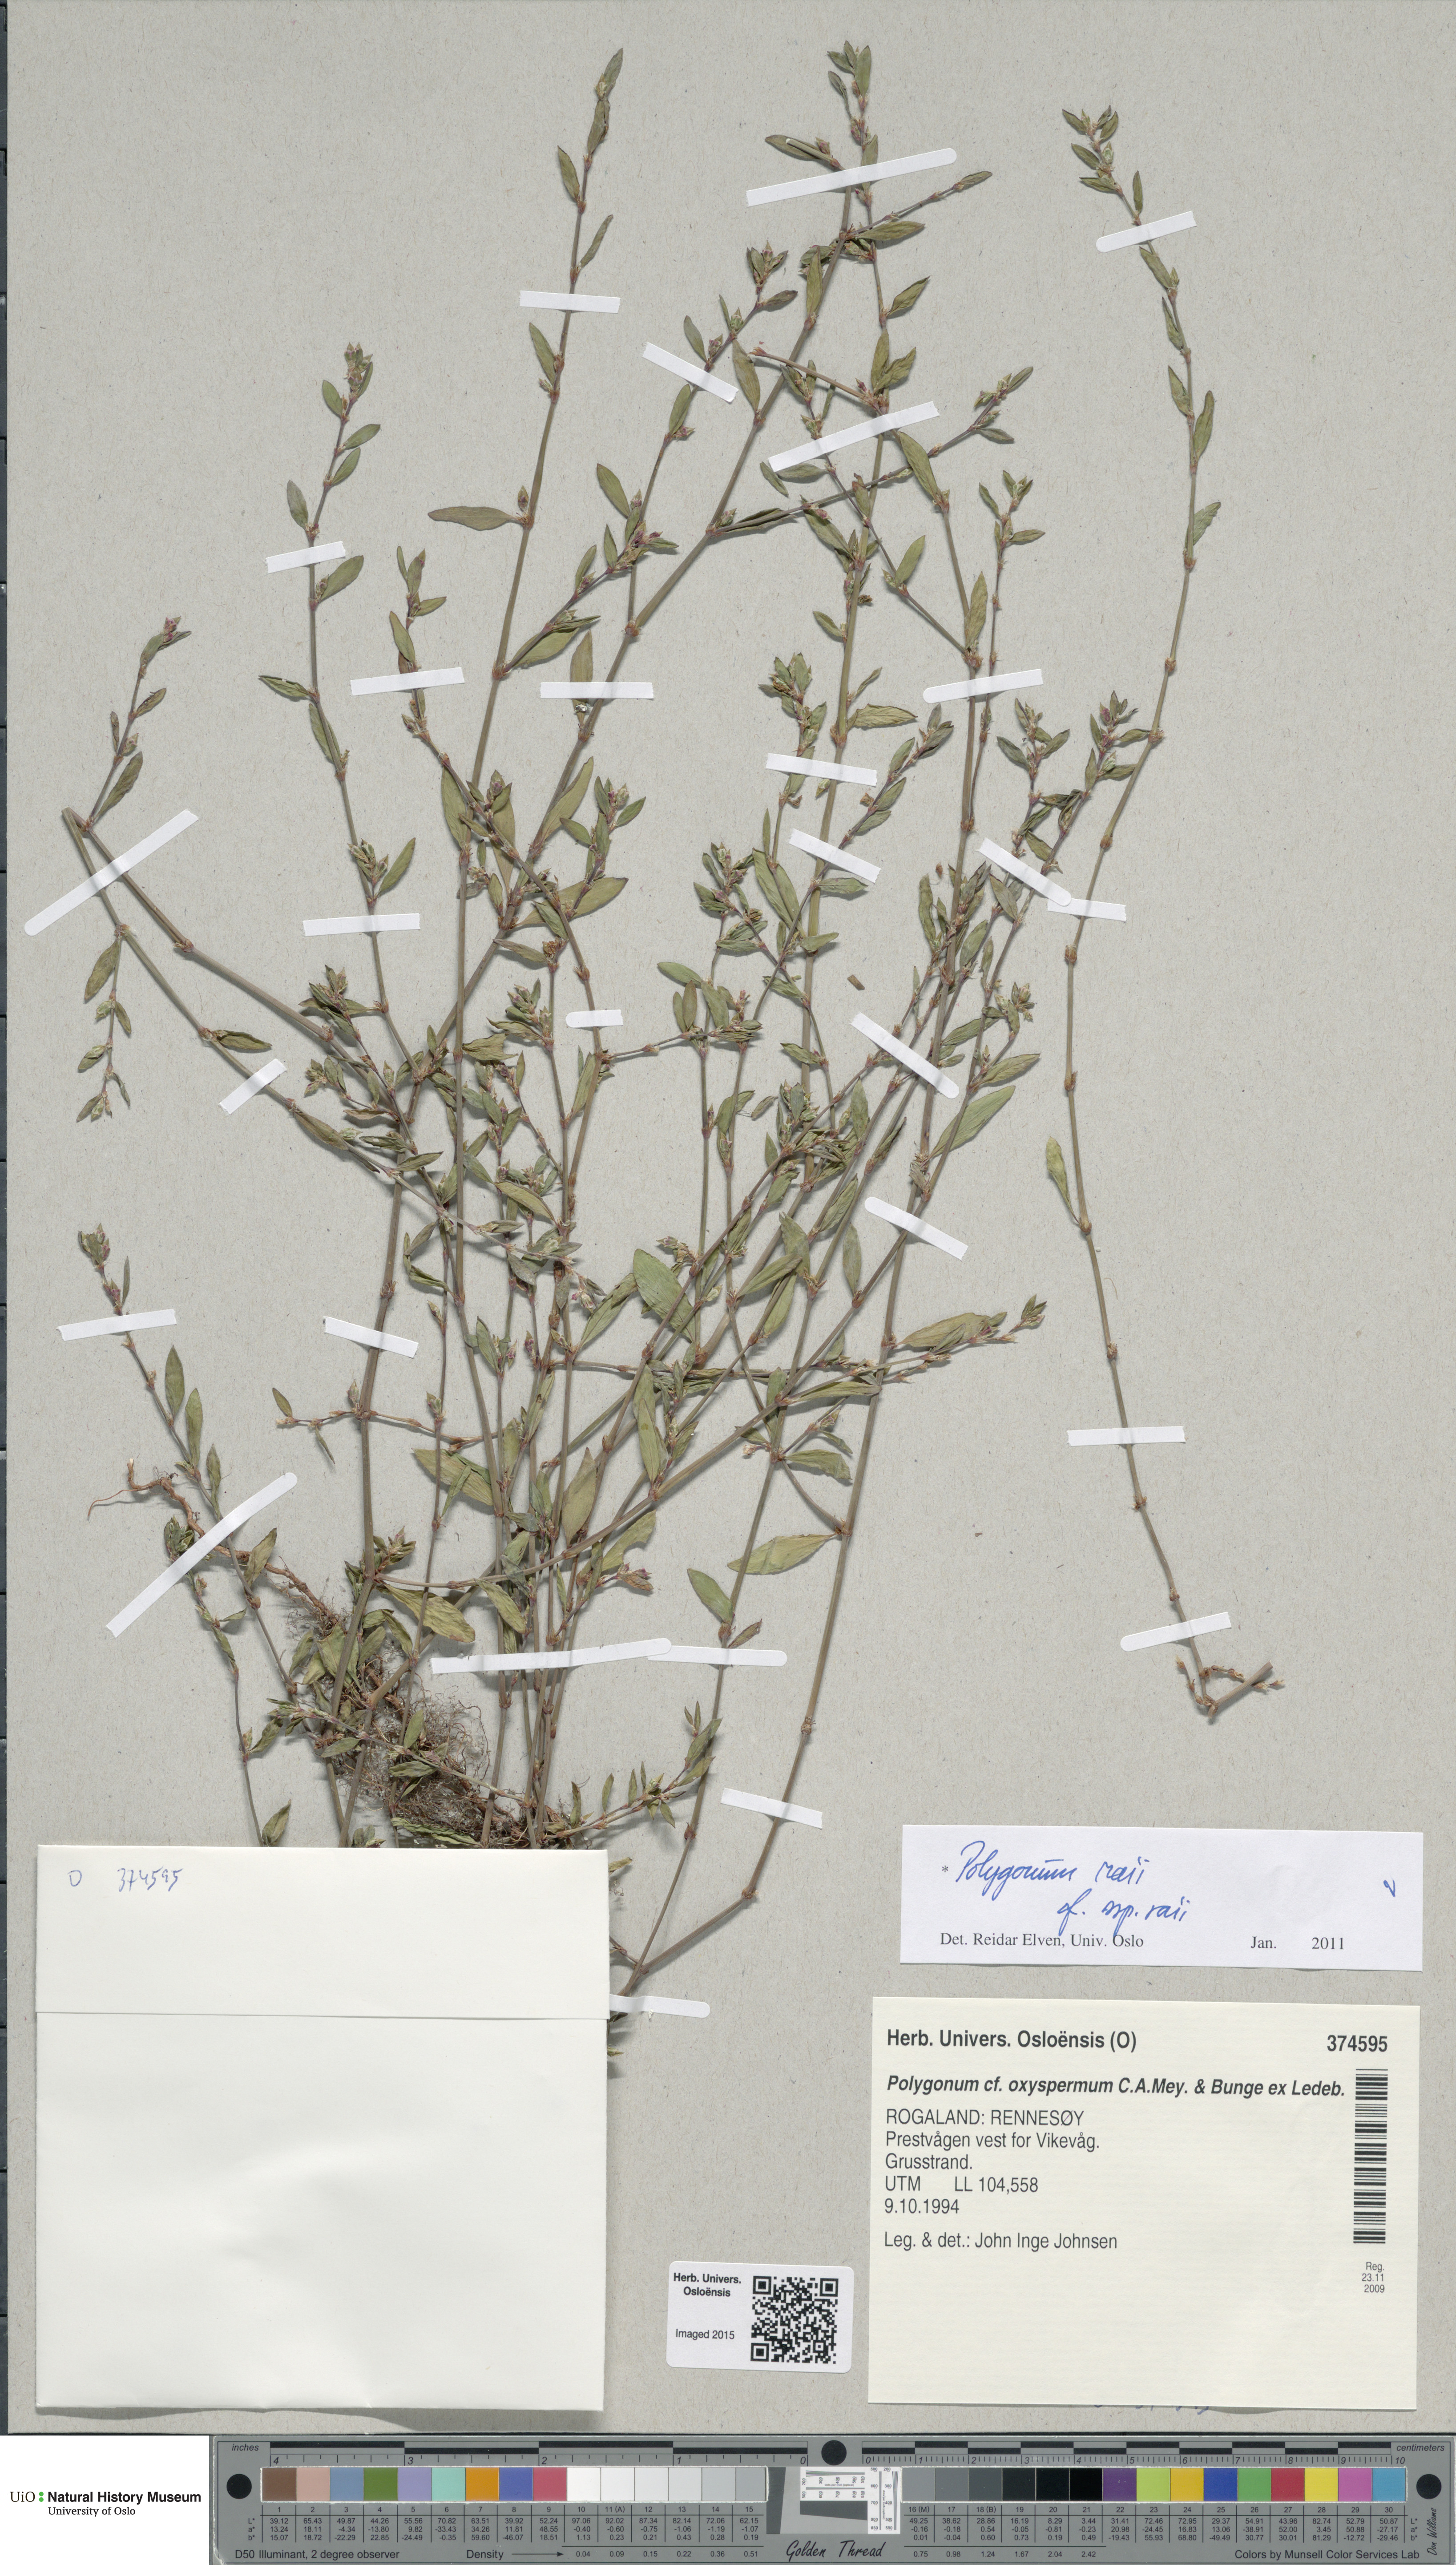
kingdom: Plantae
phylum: Tracheophyta
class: Magnoliopsida
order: Caryophyllales
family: Polygonaceae
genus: Polygonum
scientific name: Polygonum raii
